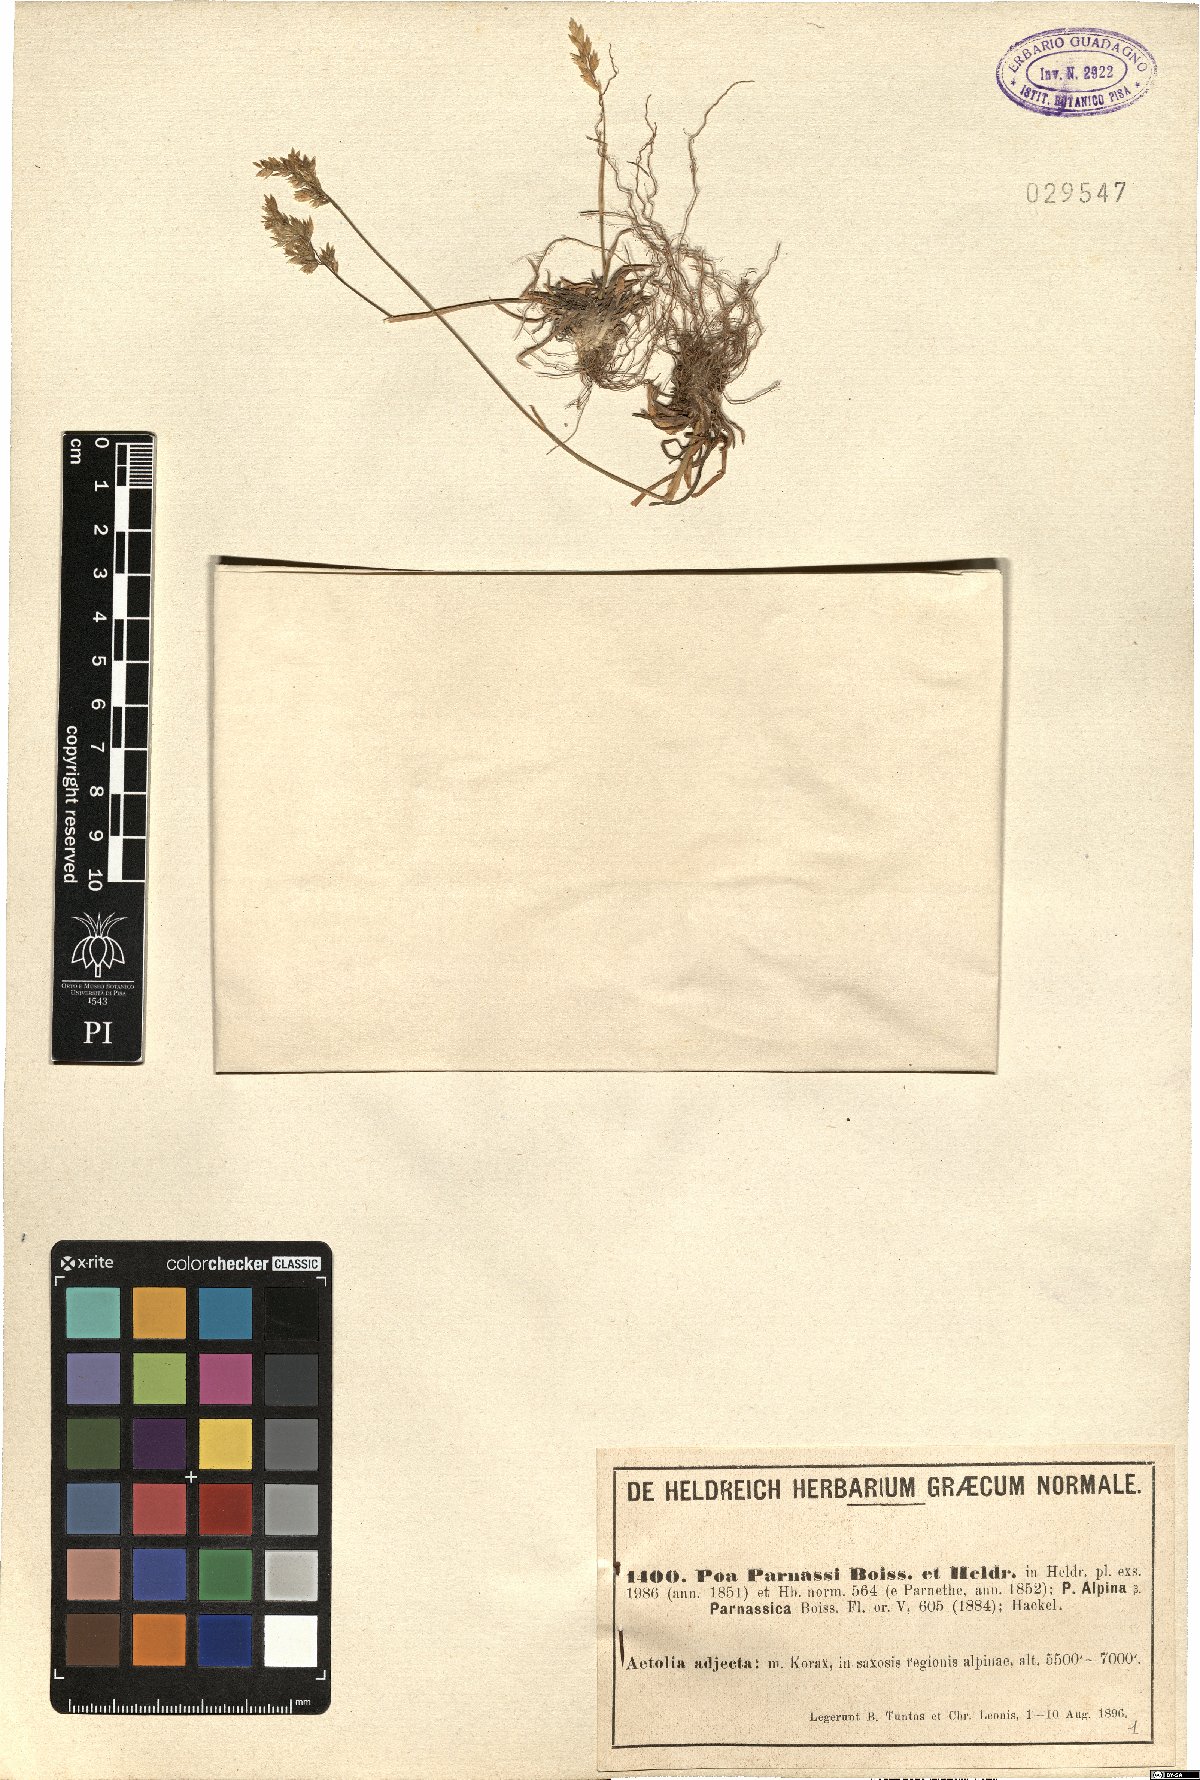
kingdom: Plantae
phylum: Tracheophyta
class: Liliopsida
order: Poales
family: Poaceae
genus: Poa
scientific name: Poa alpina
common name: Alpine bluegrass
